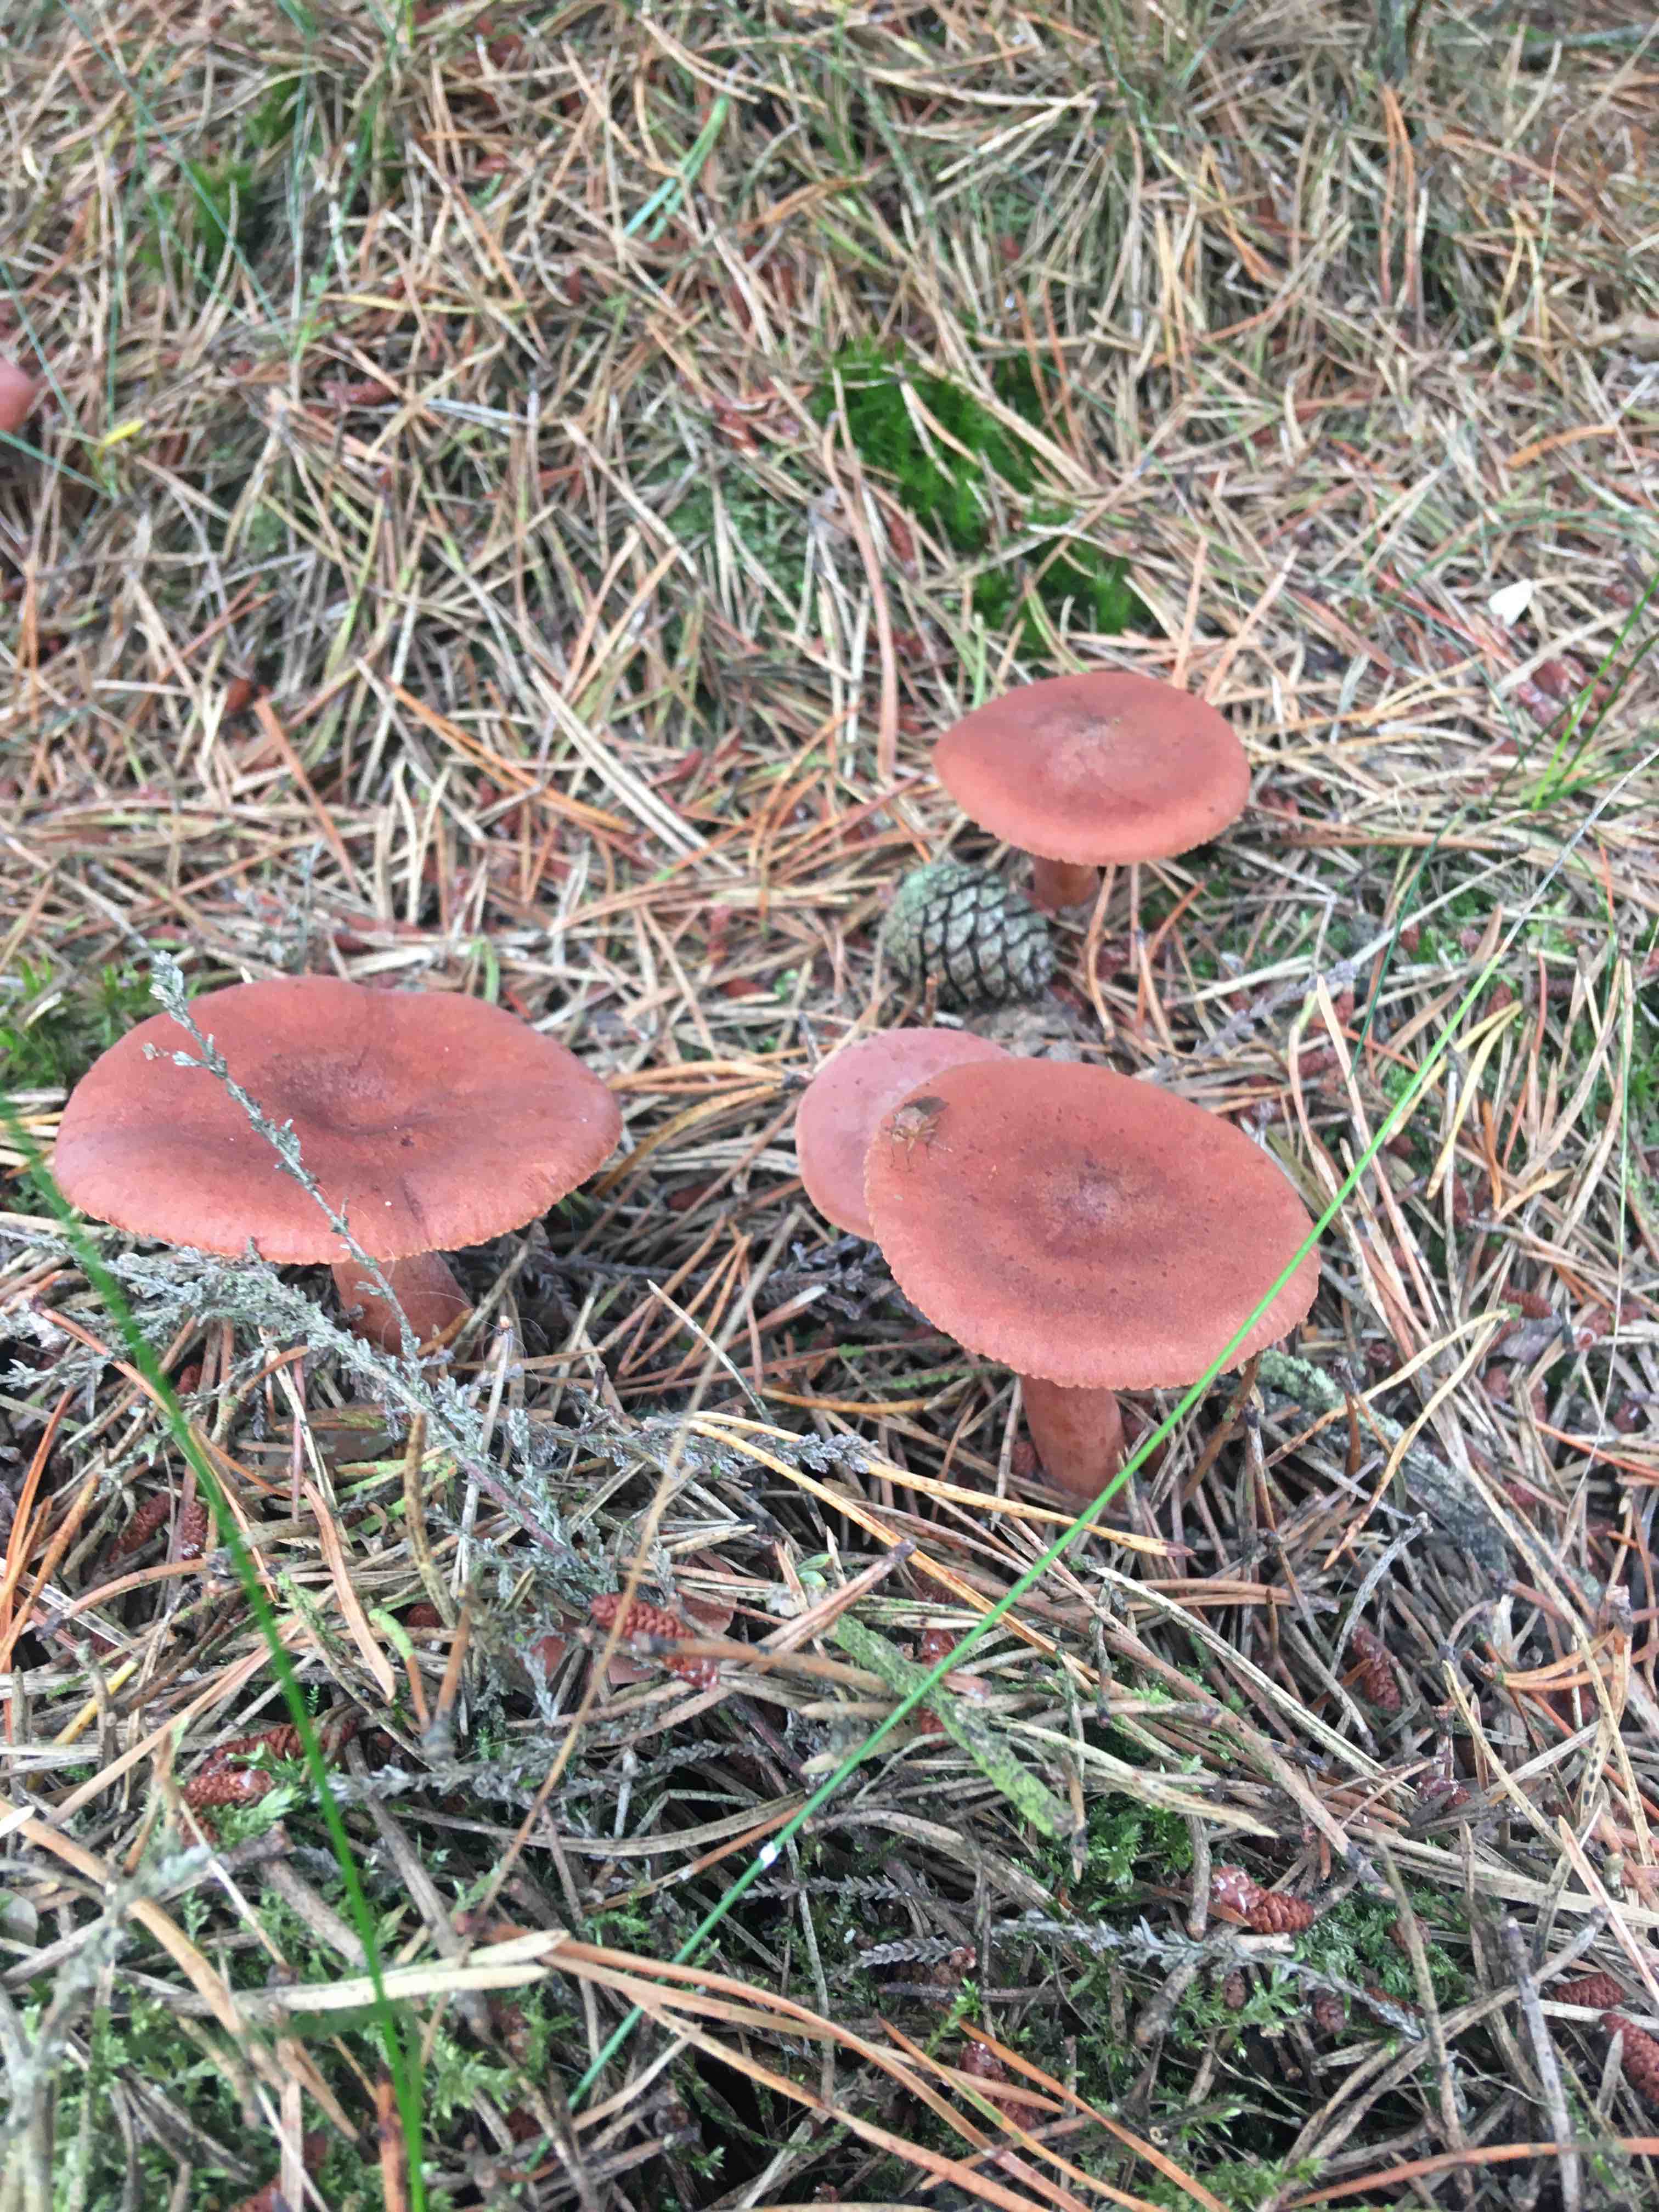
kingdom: Fungi
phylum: Basidiomycota
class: Agaricomycetes
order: Russulales
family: Russulaceae
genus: Lactarius
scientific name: Lactarius rufus
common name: rødbrun mælkehat
